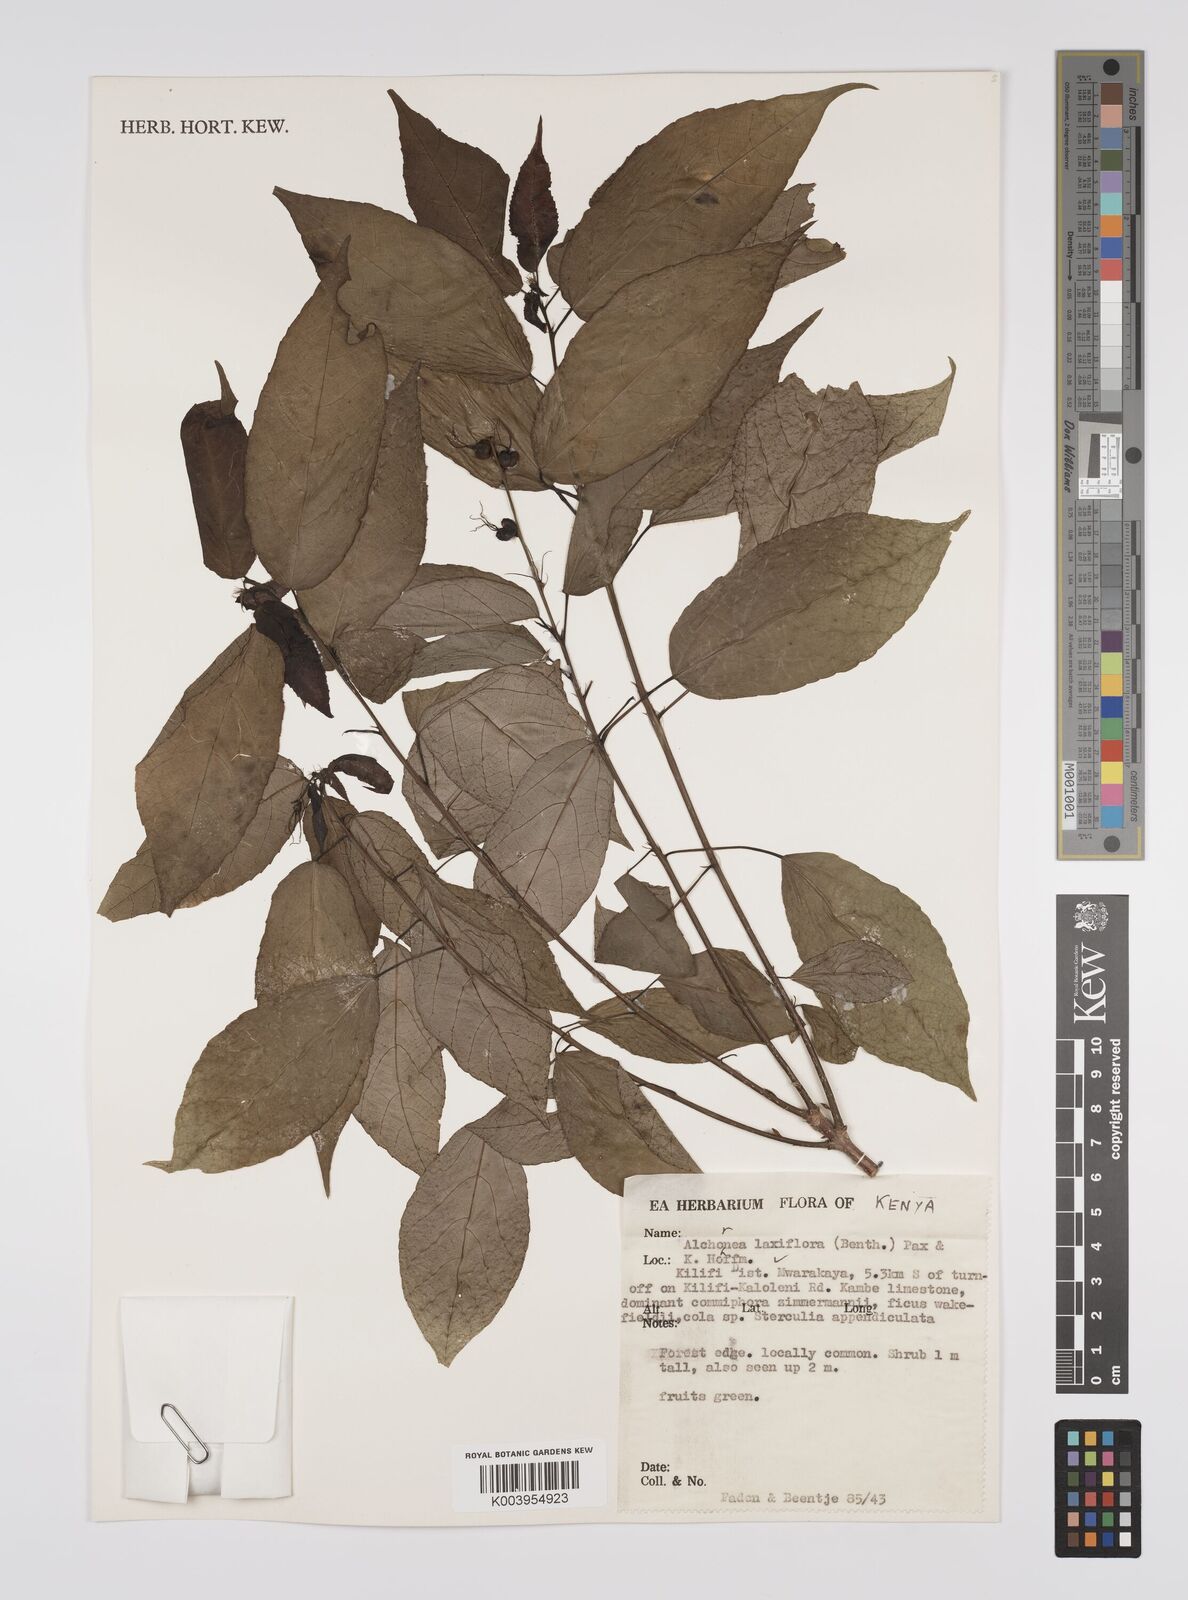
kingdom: Plantae
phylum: Tracheophyta
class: Magnoliopsida
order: Malpighiales
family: Euphorbiaceae
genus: Alchornea
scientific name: Alchornea laxiflora
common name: Lowveld bead-string
